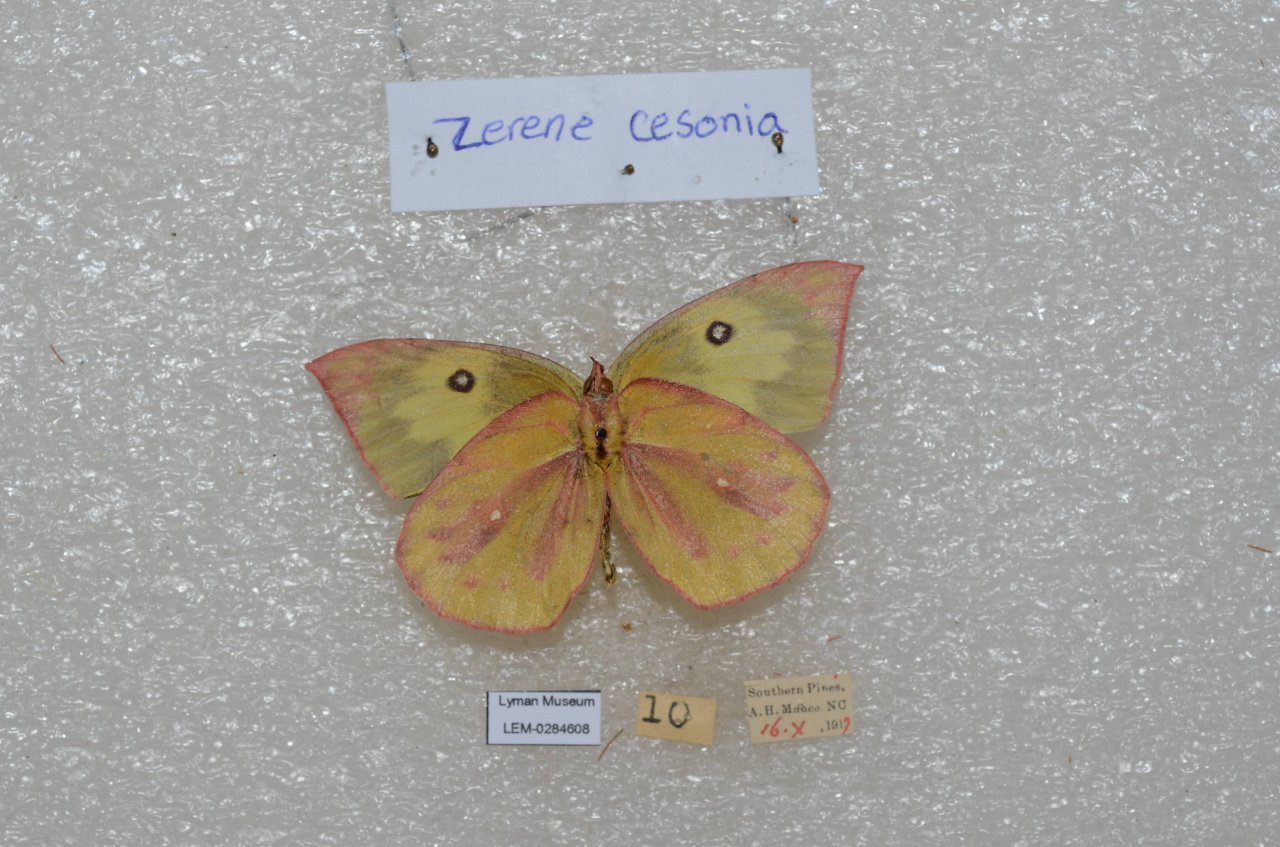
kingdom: Animalia
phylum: Arthropoda
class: Insecta
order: Lepidoptera
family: Pieridae
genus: Zerene
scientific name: Zerene cesonia
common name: Southern Dogface
